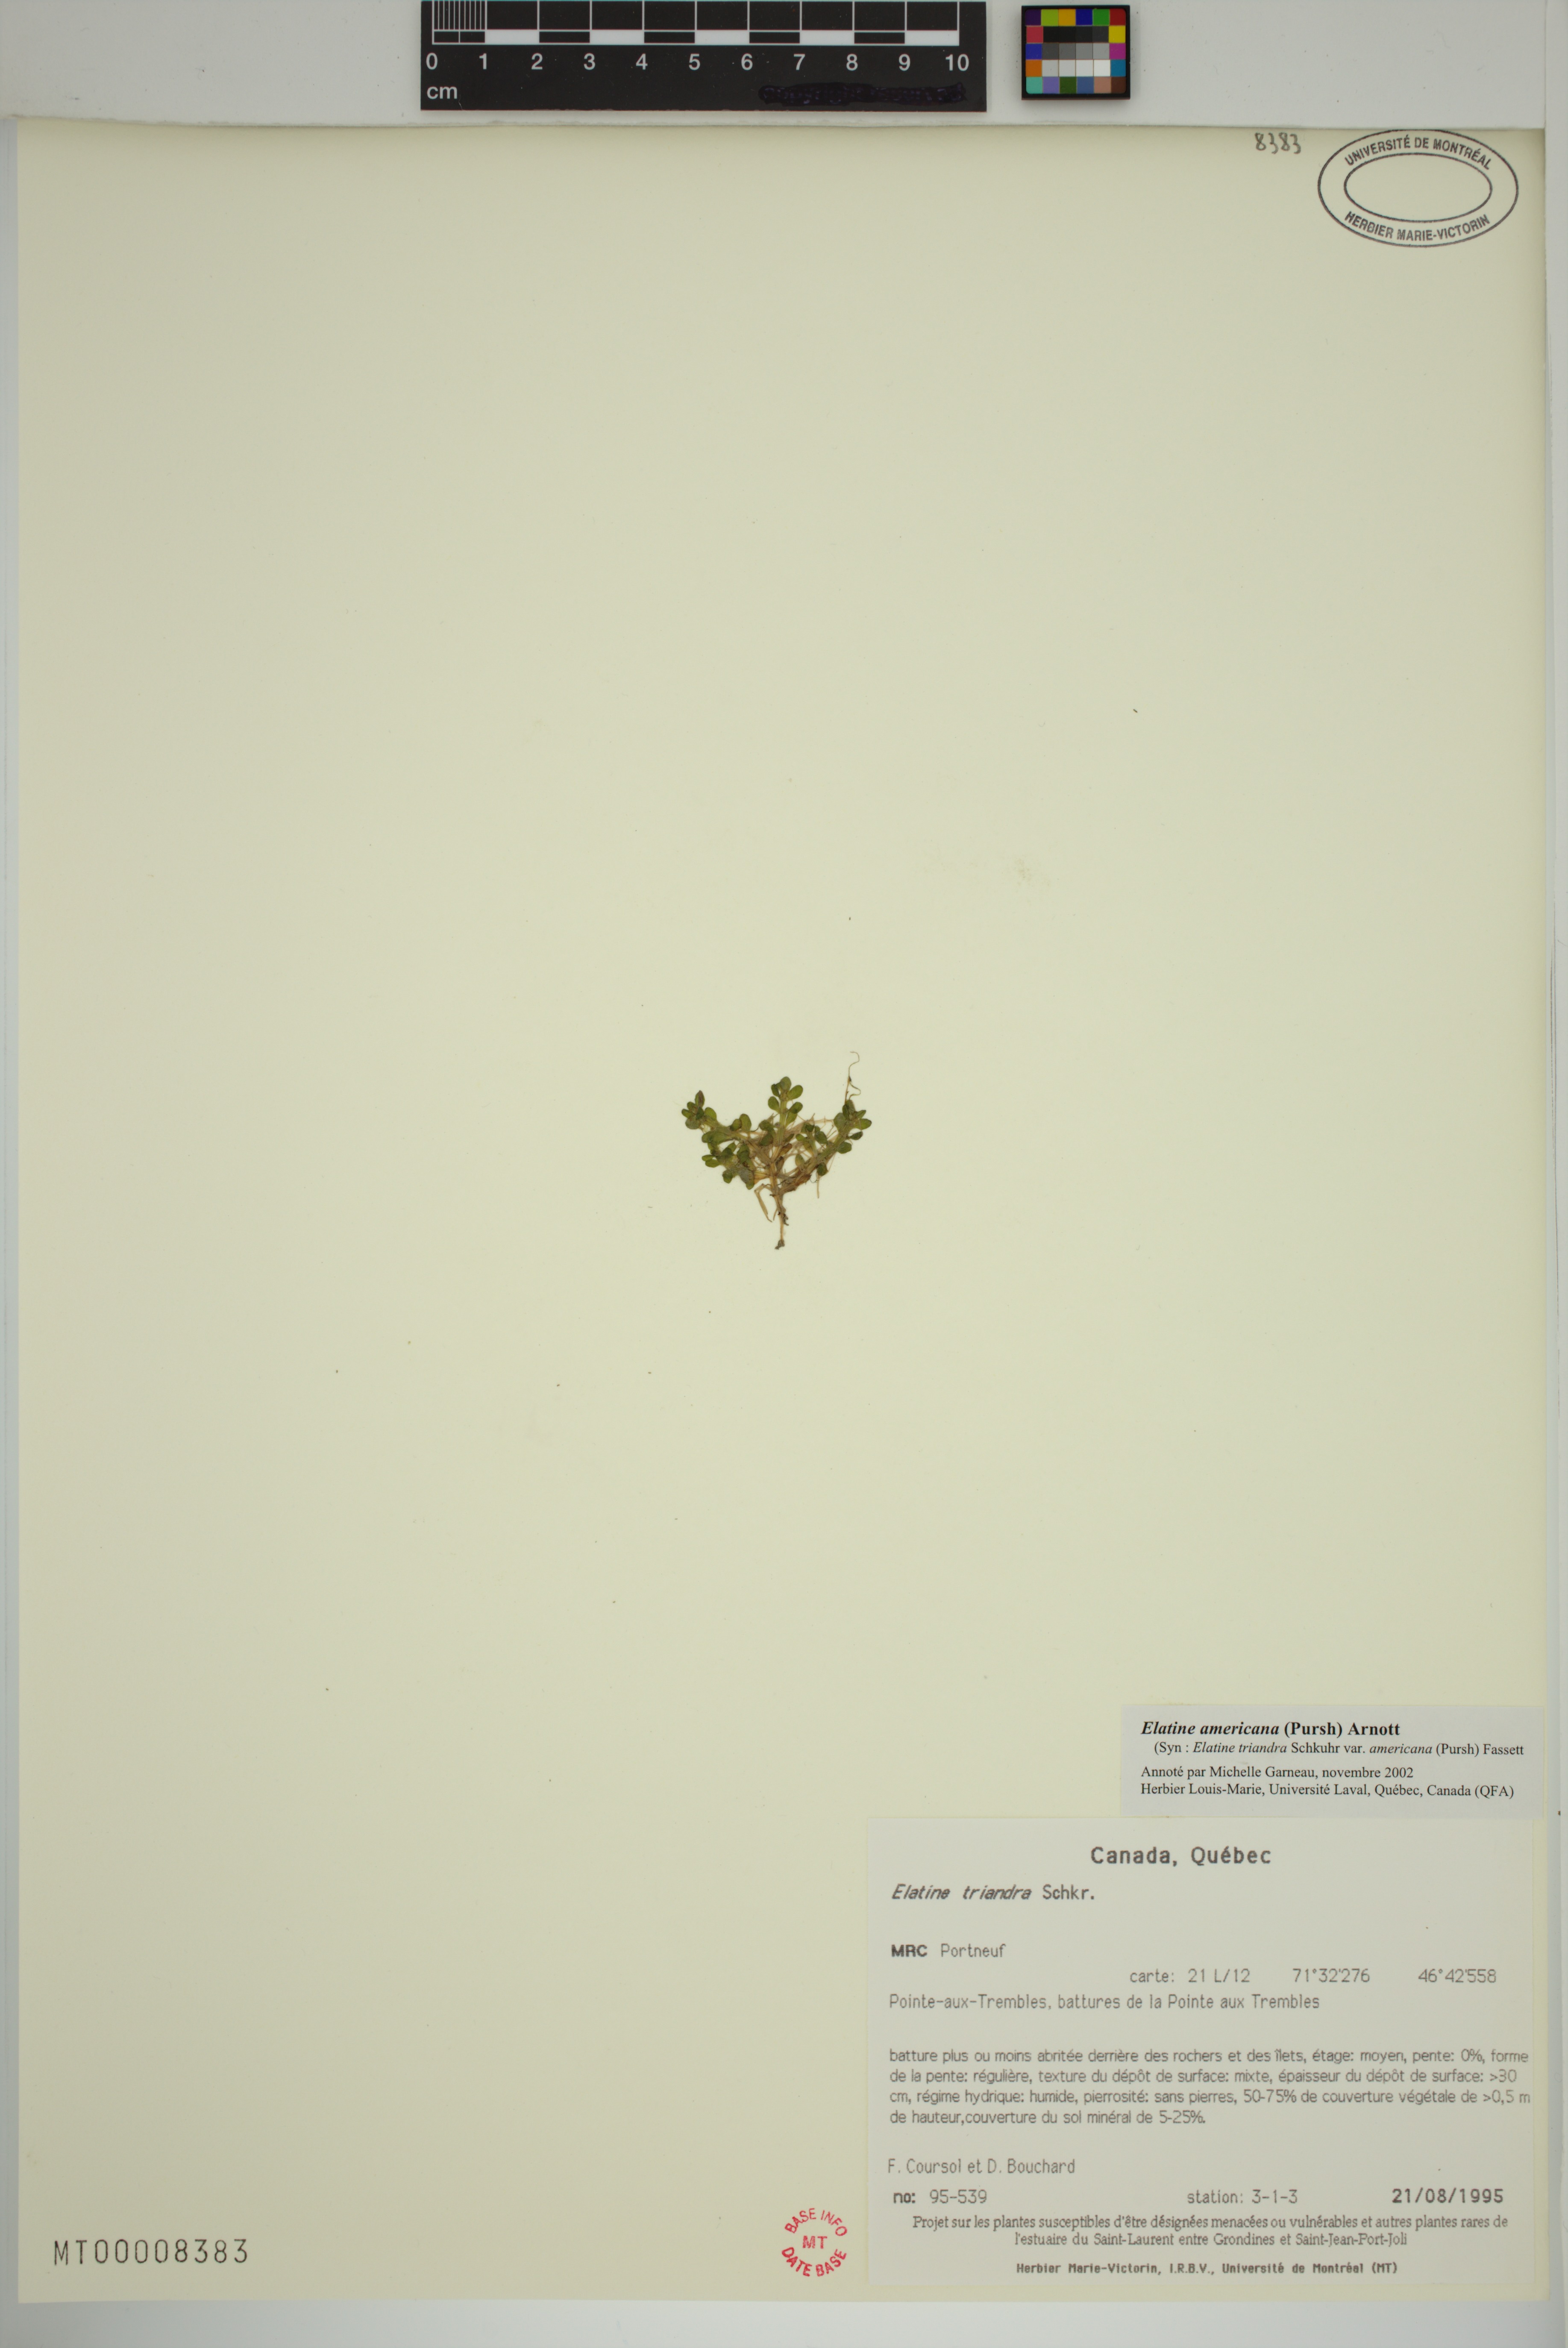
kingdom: Plantae
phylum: Tracheophyta
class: Magnoliopsida
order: Malpighiales
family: Elatinaceae
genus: Elatine
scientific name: Elatine americana
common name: American waterwort
